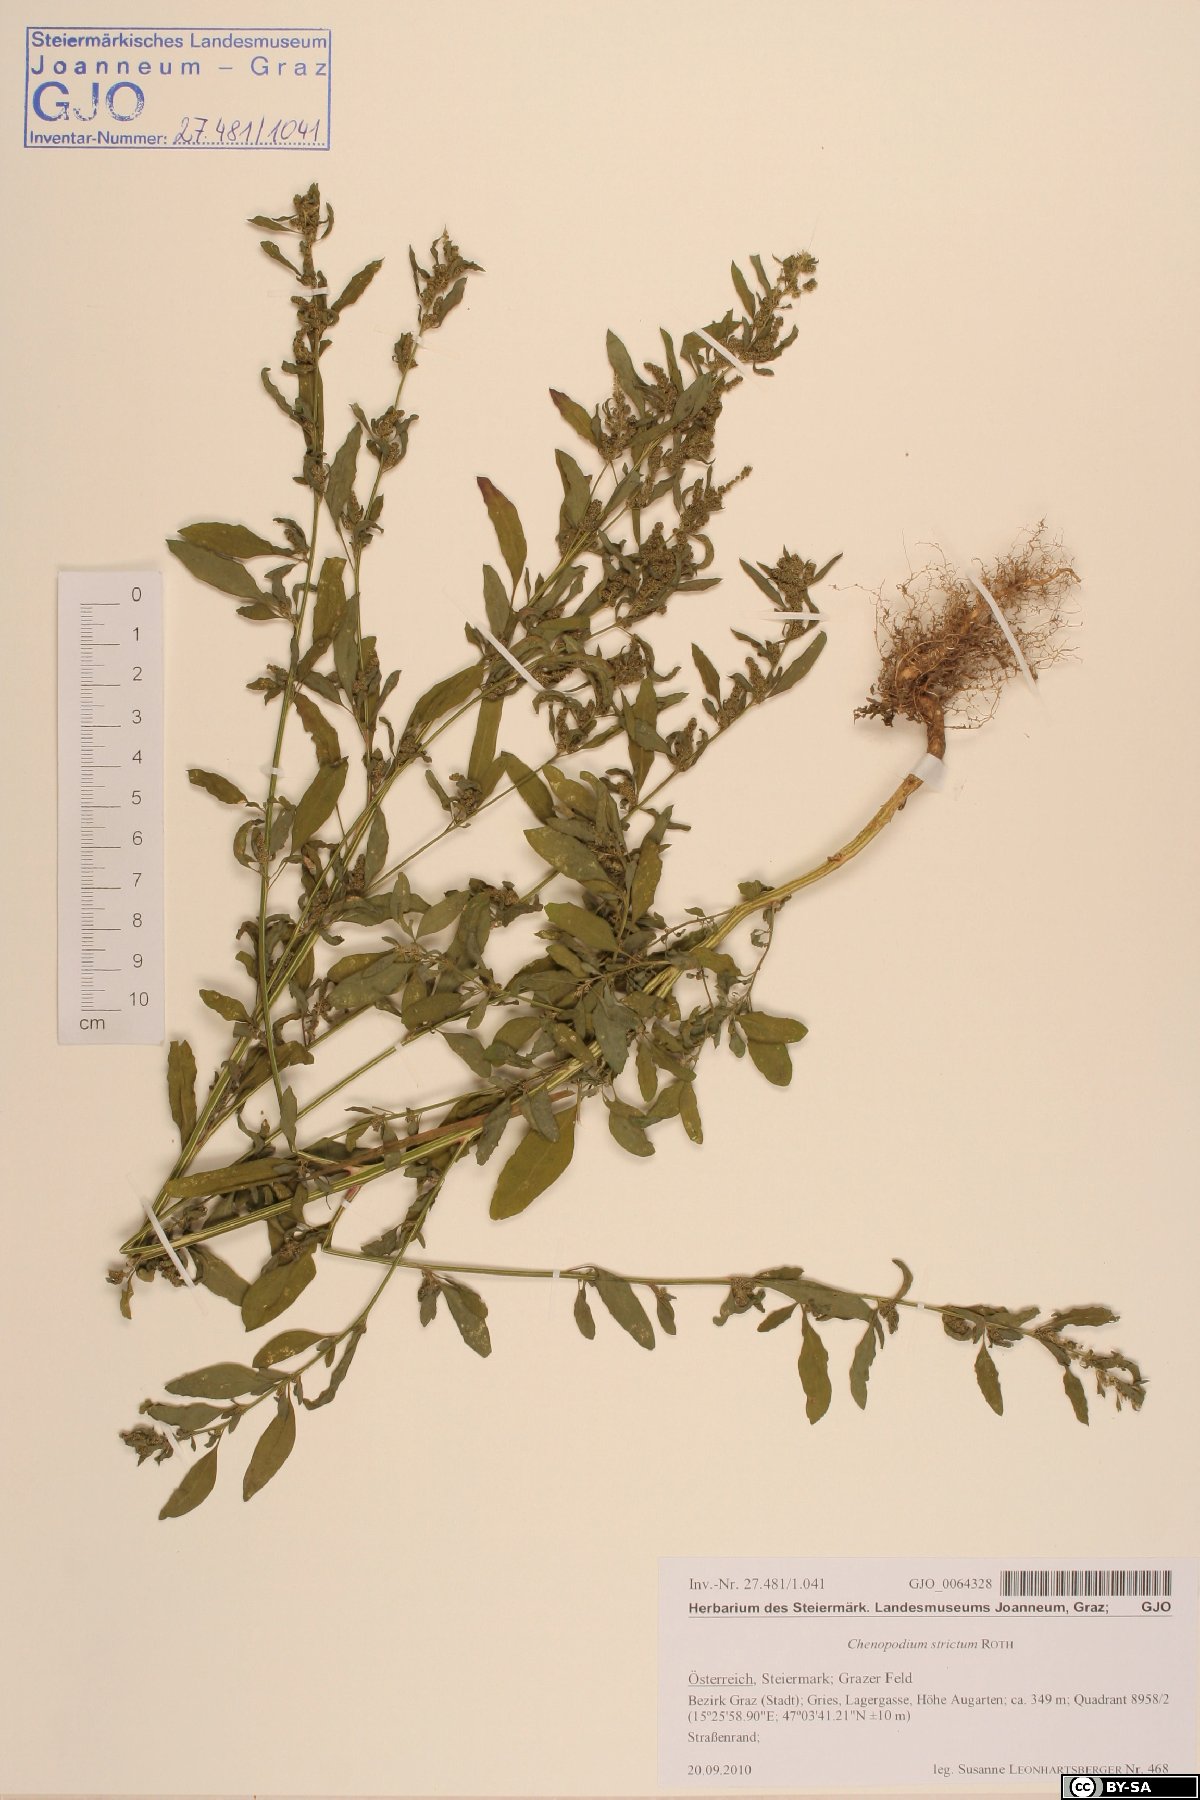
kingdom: Plantae
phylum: Tracheophyta
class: Magnoliopsida
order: Caryophyllales
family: Amaranthaceae
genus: Chenopodium
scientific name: Chenopodium album
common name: Fat-hen
